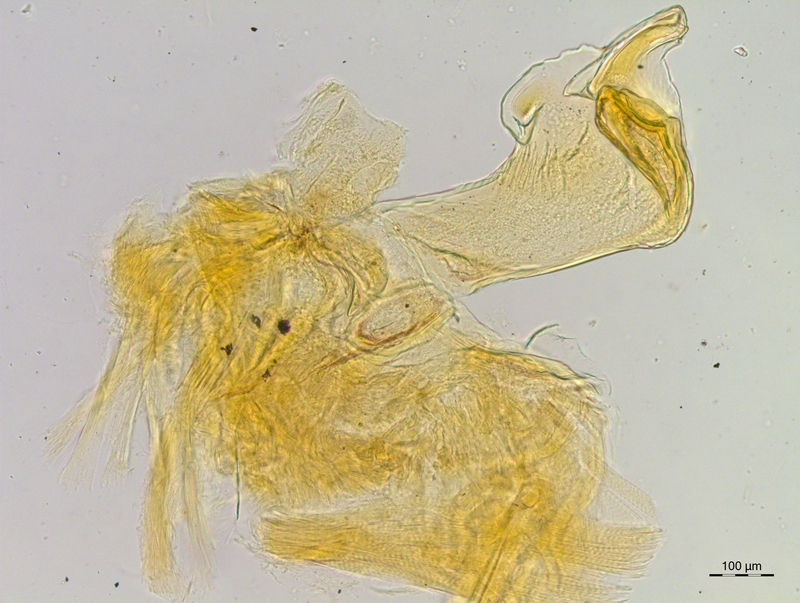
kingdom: Animalia
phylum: Arthropoda
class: Diplopoda
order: Chordeumatida
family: Craspedosomatidae
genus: Craspedosoma
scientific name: Craspedosoma rawlinsii
